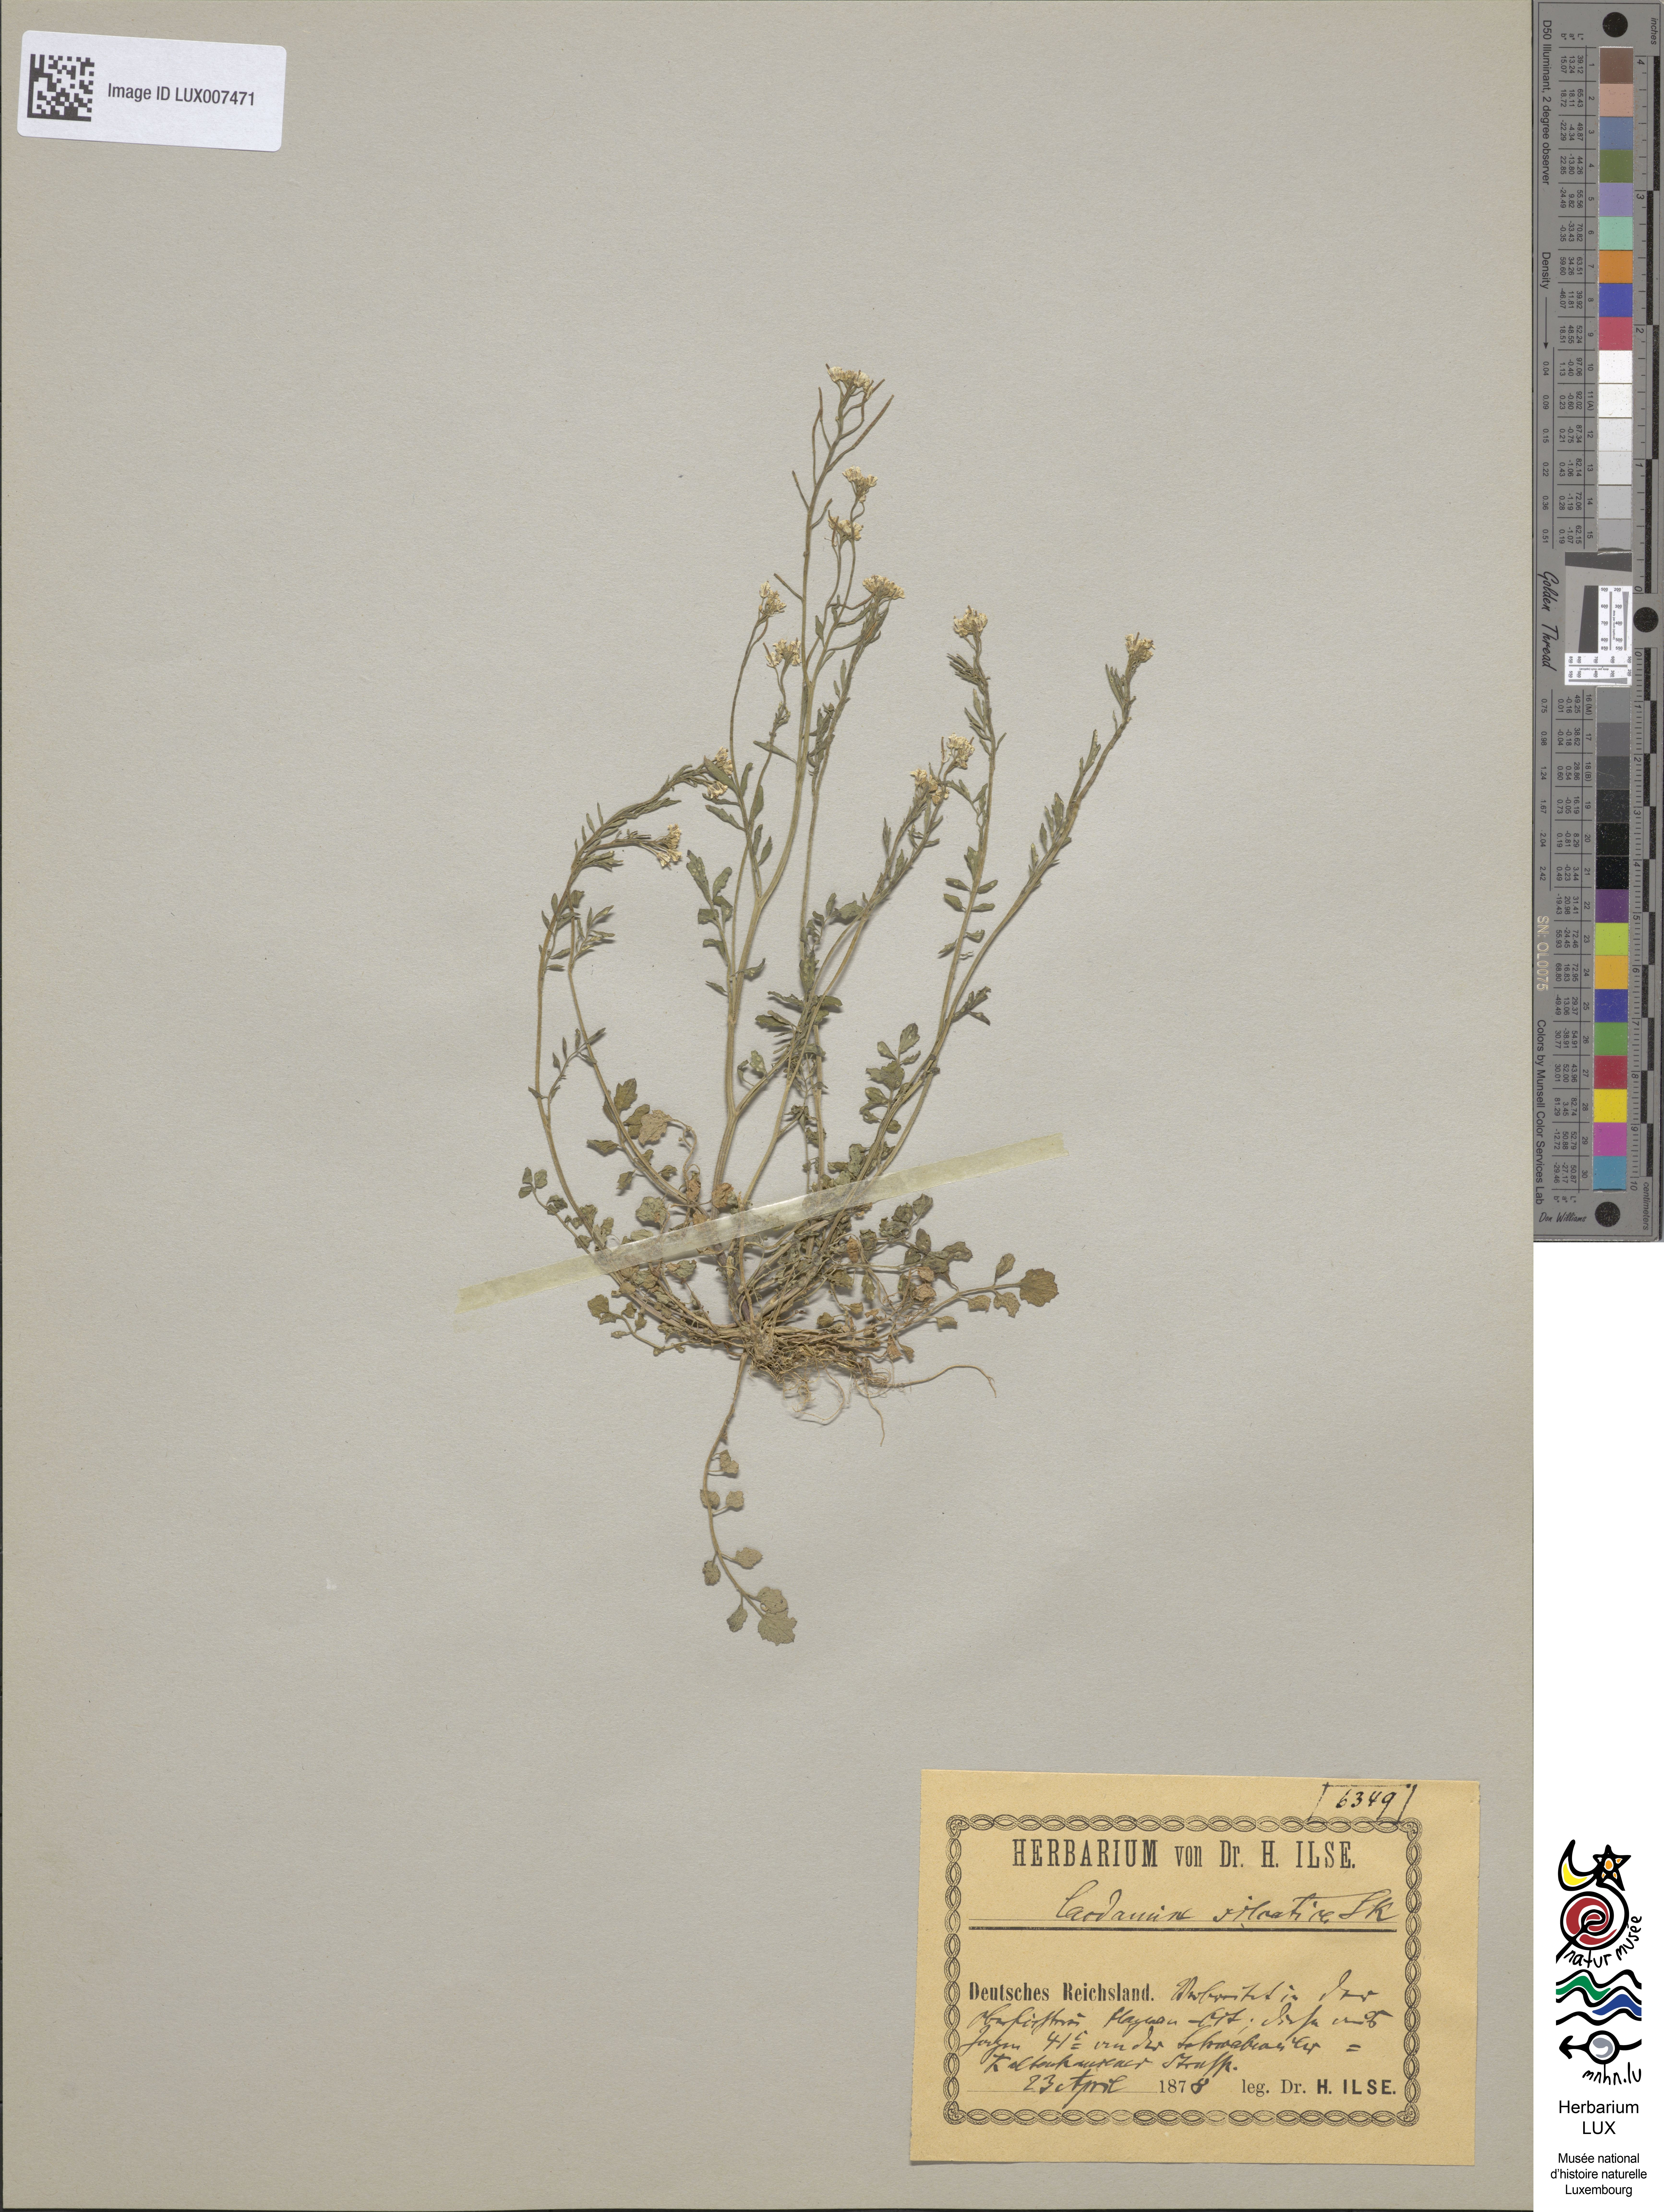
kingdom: Plantae
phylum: Tracheophyta
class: Magnoliopsida
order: Brassicales
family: Brassicaceae
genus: Cardamine
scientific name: Cardamine flexuosa
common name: Woodland bittercress
